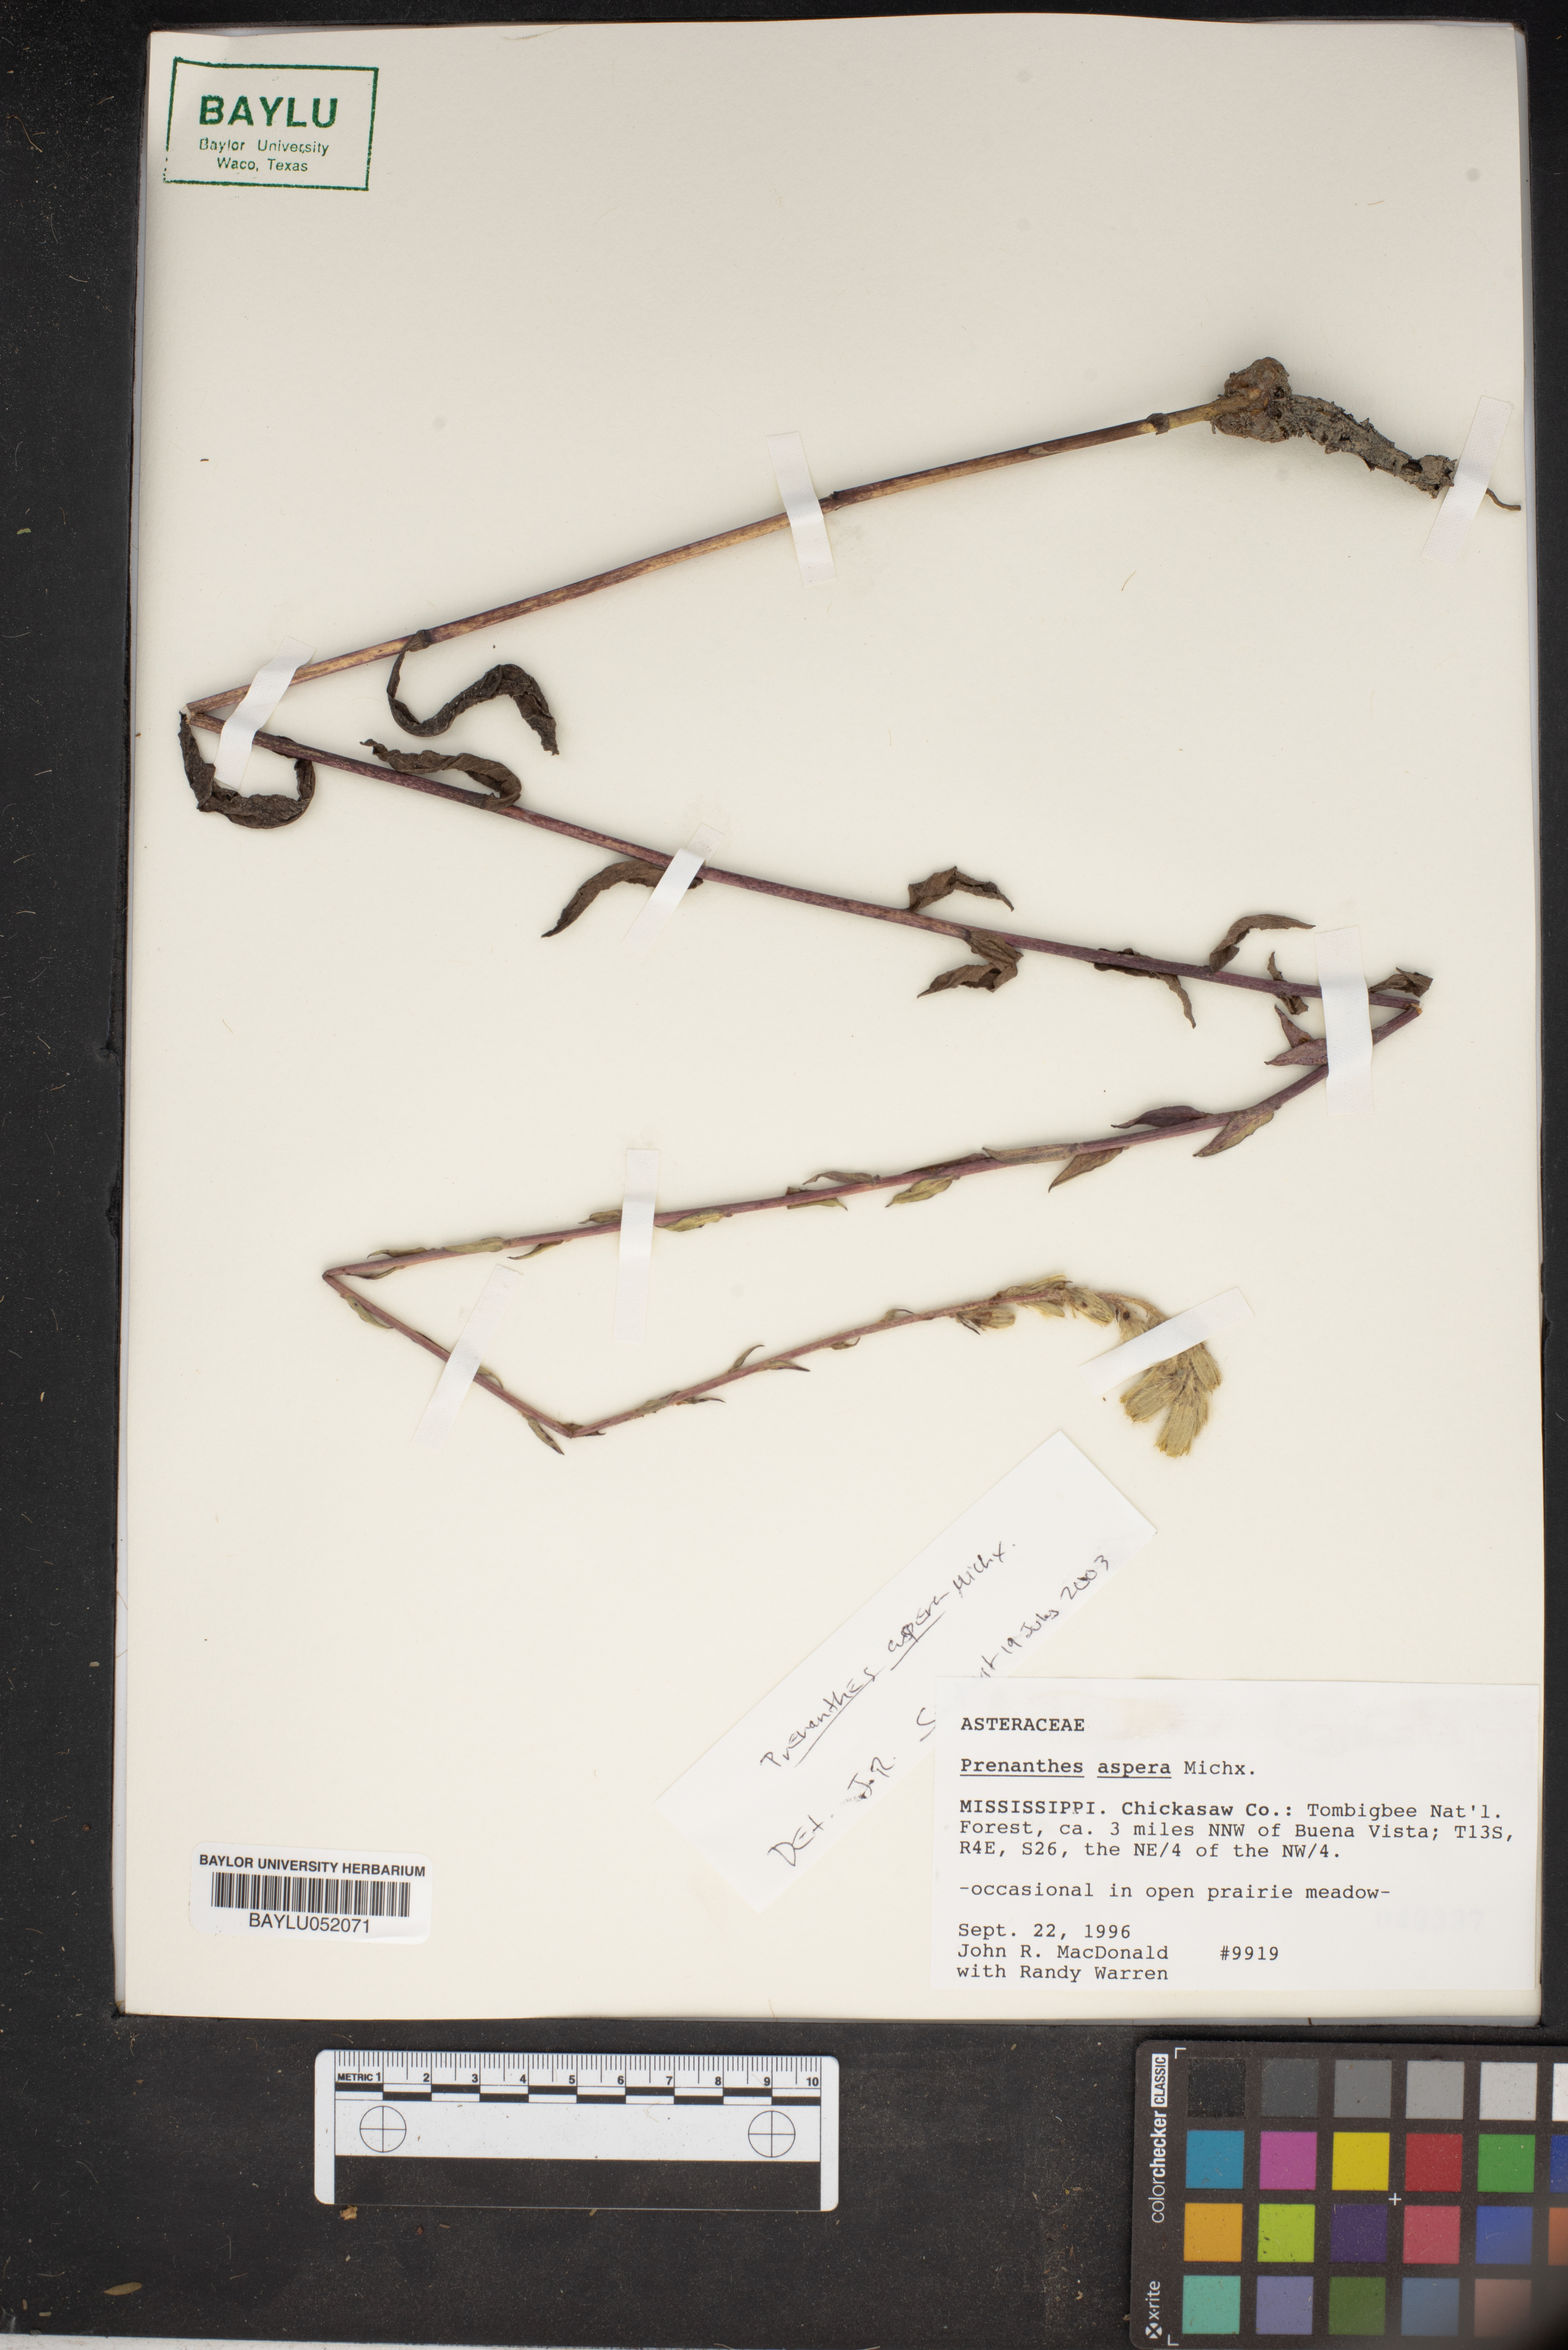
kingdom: Plantae
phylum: Tracheophyta
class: Magnoliopsida
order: Asterales
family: Asteraceae
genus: Nabalus
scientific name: Nabalus asper
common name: Rough rattlesnakeroot
